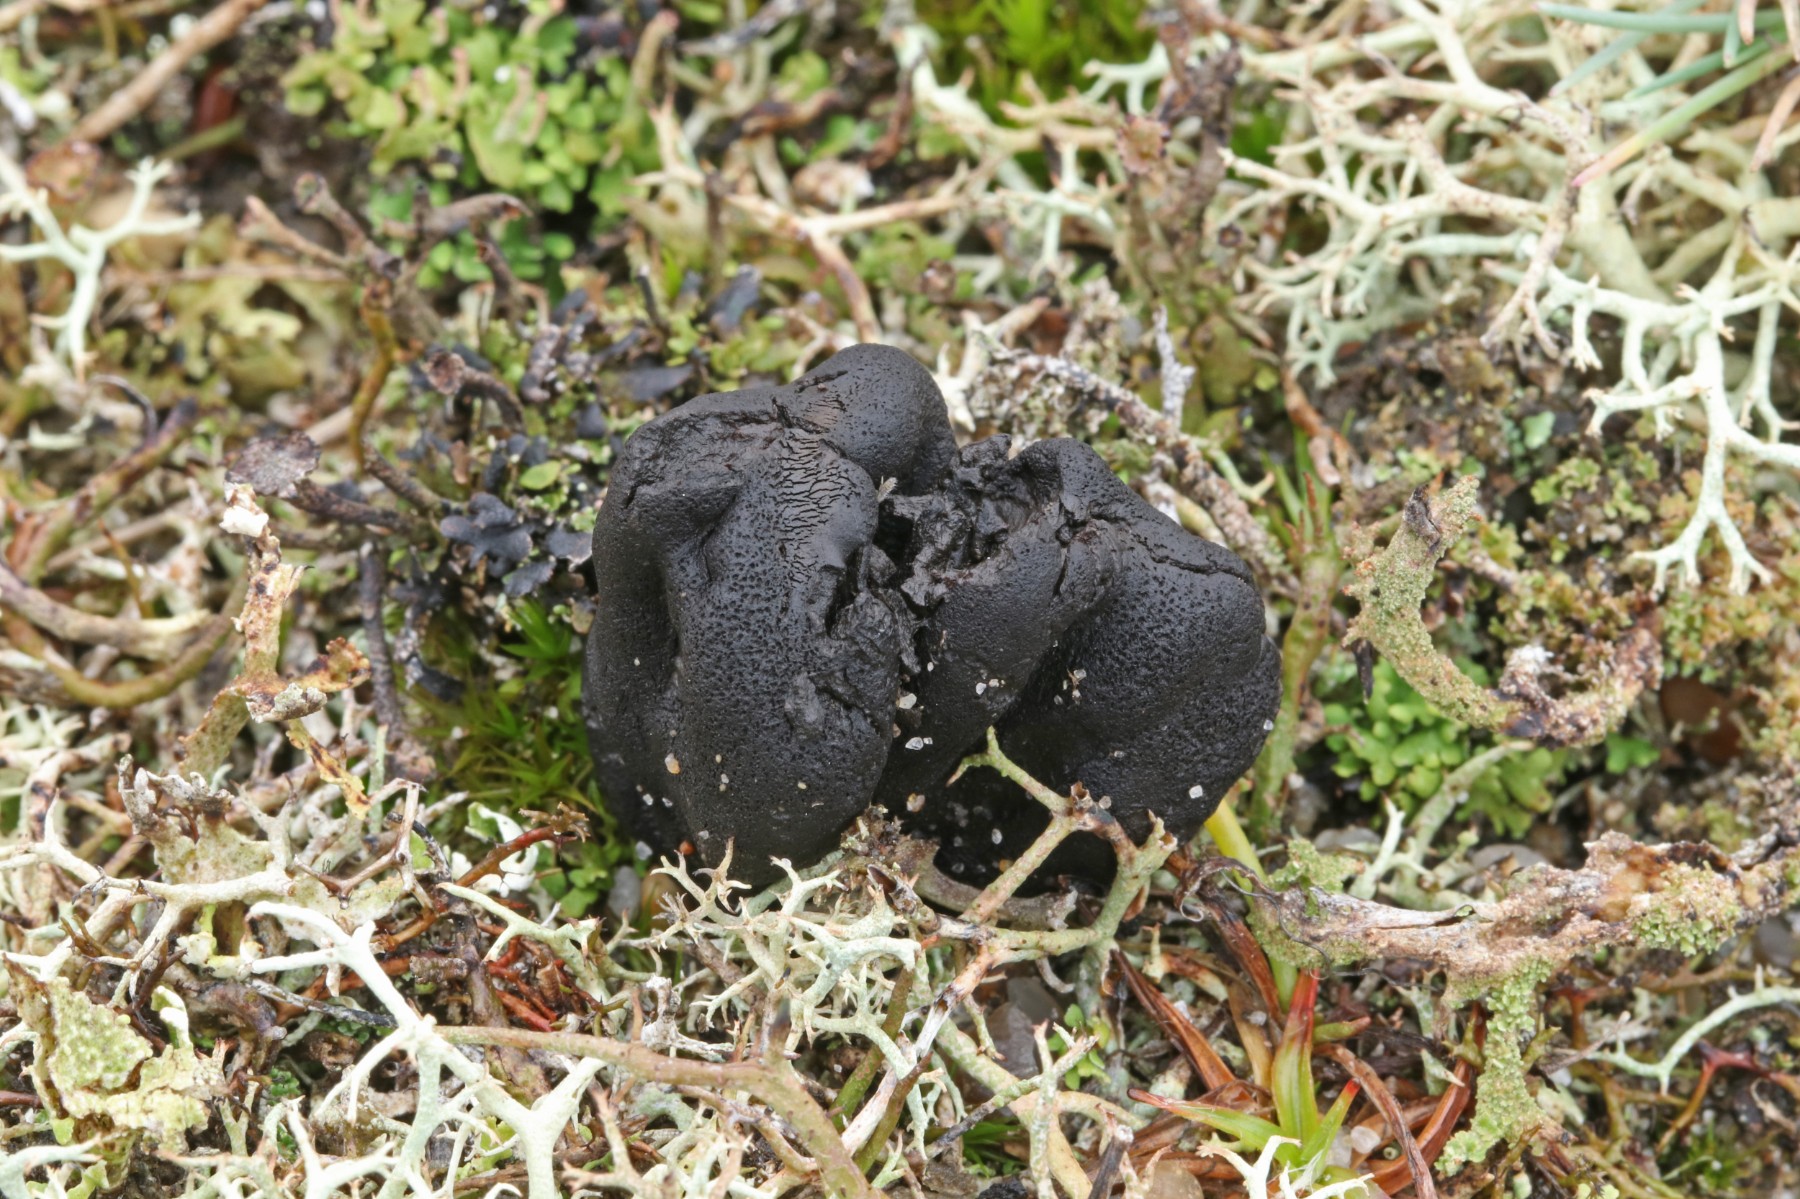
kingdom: Fungi
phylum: Ascomycota
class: Geoglossomycetes
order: Geoglossales
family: Geoglossaceae
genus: Sabuloglossum
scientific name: Sabuloglossum arenarium
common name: klit-jordtunge
